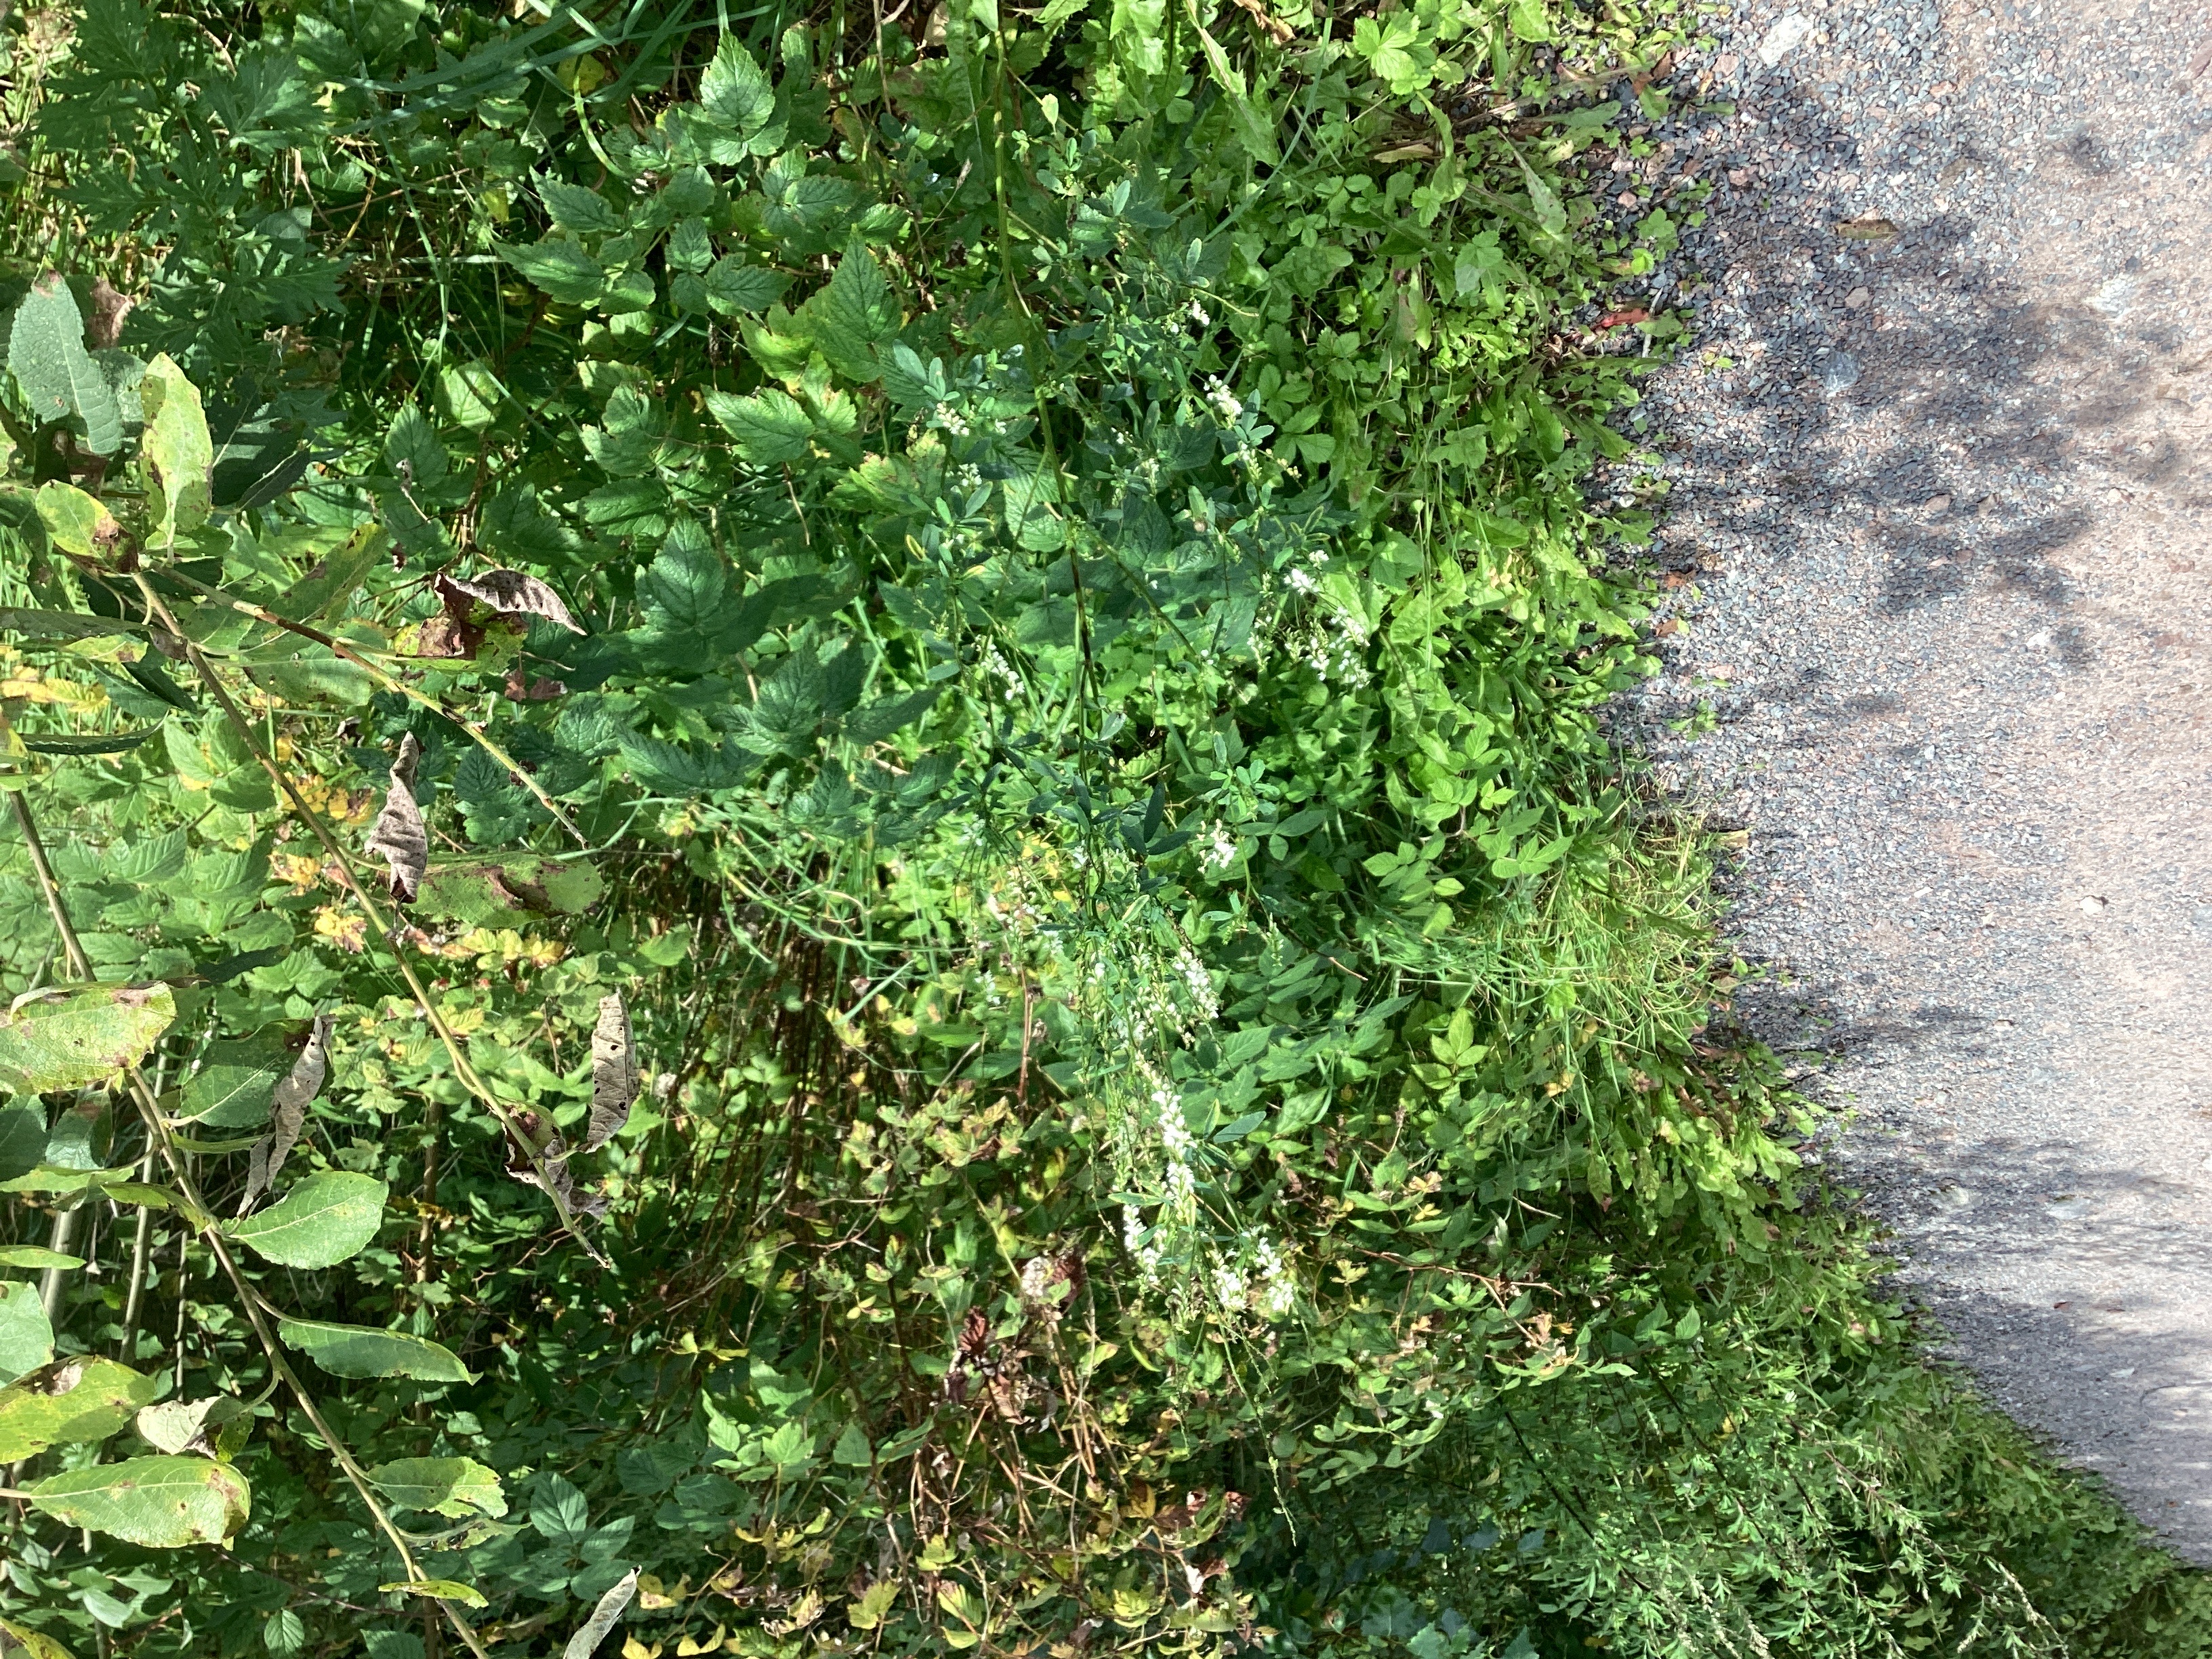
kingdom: Plantae
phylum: Tracheophyta
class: Magnoliopsida
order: Fabales
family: Fabaceae
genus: Melilotus
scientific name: Melilotus albus
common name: hvitsteinkløver
